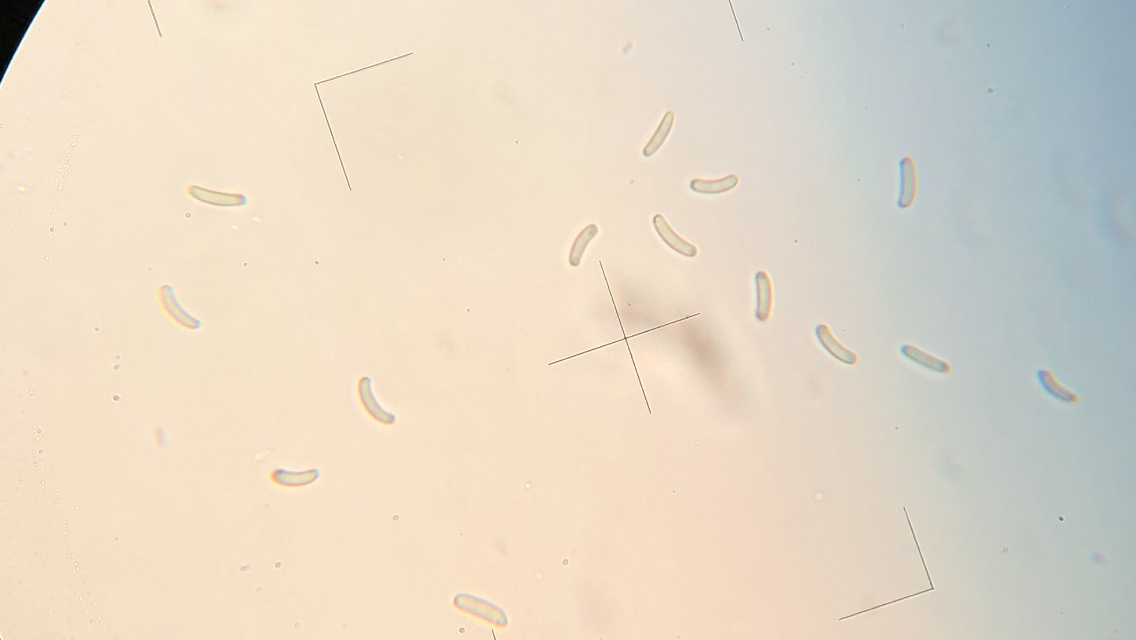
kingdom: Fungi
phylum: Ascomycota
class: Sordariomycetes
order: Xylariales
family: Diatrypaceae
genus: Diatrype
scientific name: Diatrype decorticata
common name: barksprænger-kulskorpe
